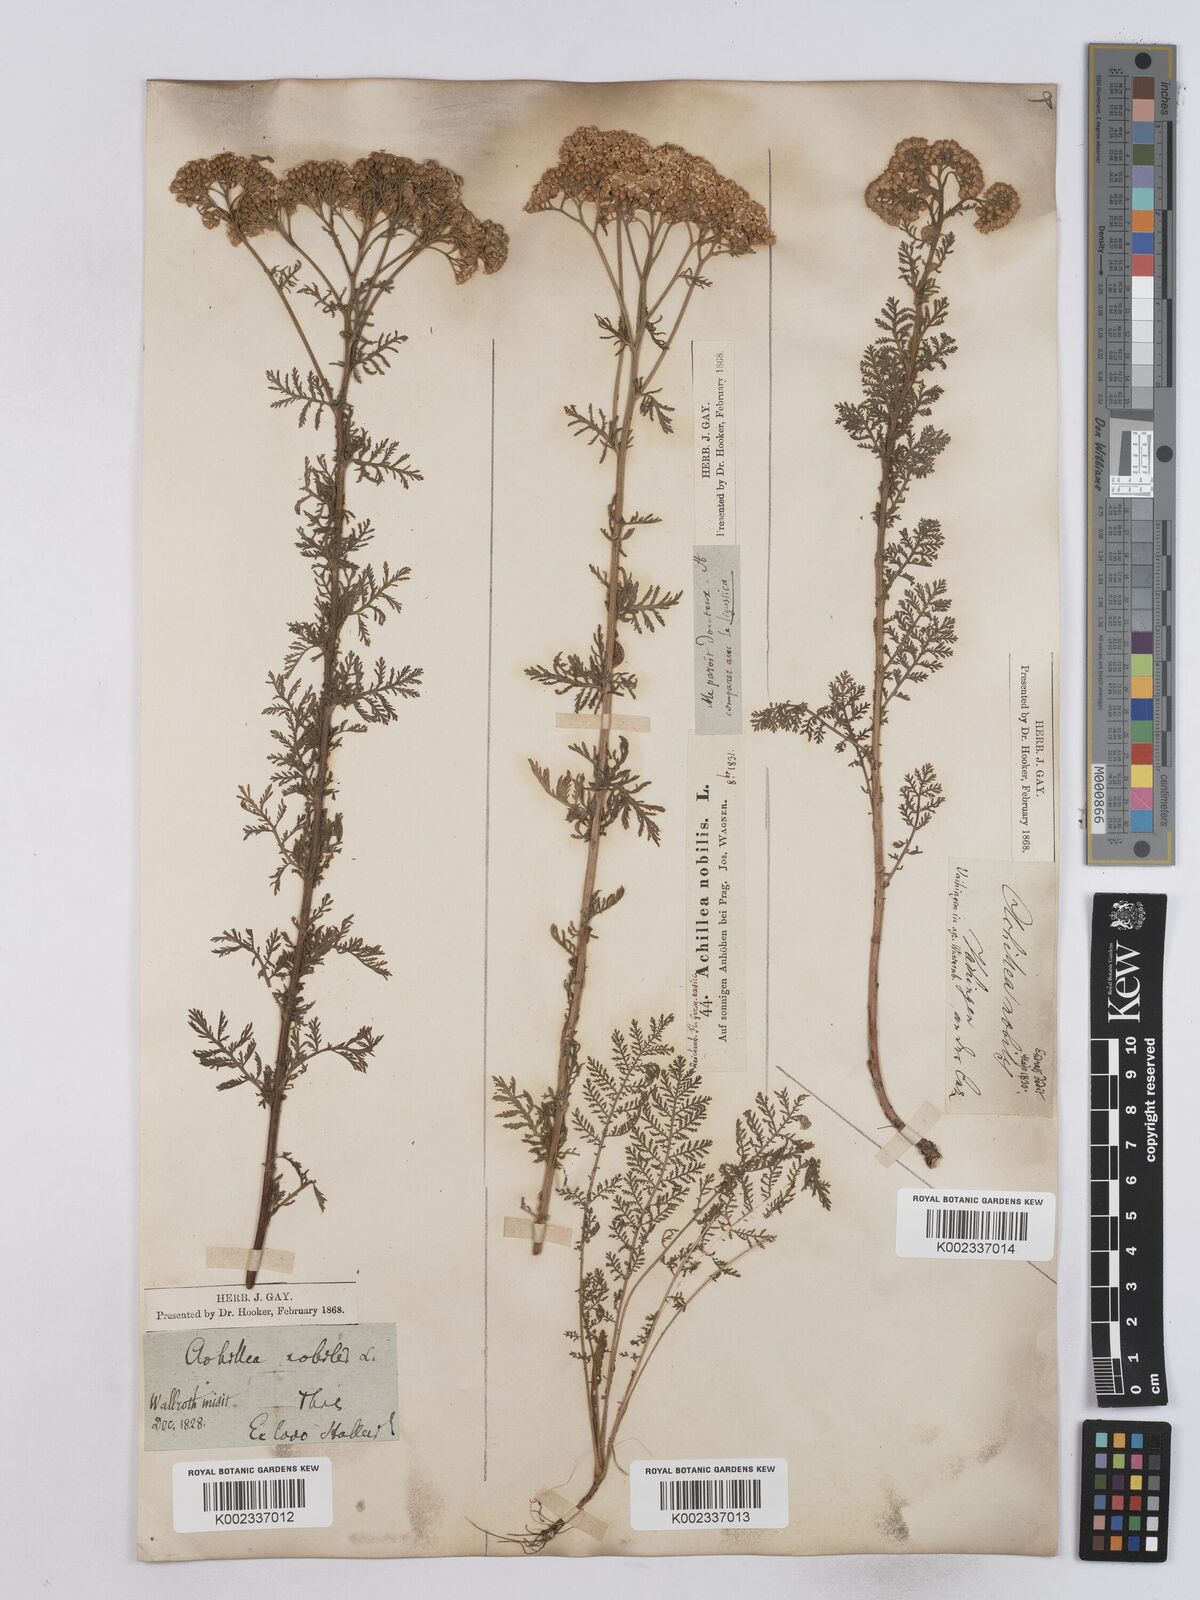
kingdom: Plantae
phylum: Tracheophyta
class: Magnoliopsida
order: Asterales
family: Asteraceae
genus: Achillea
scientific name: Achillea nobilis
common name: Noble yarrow
